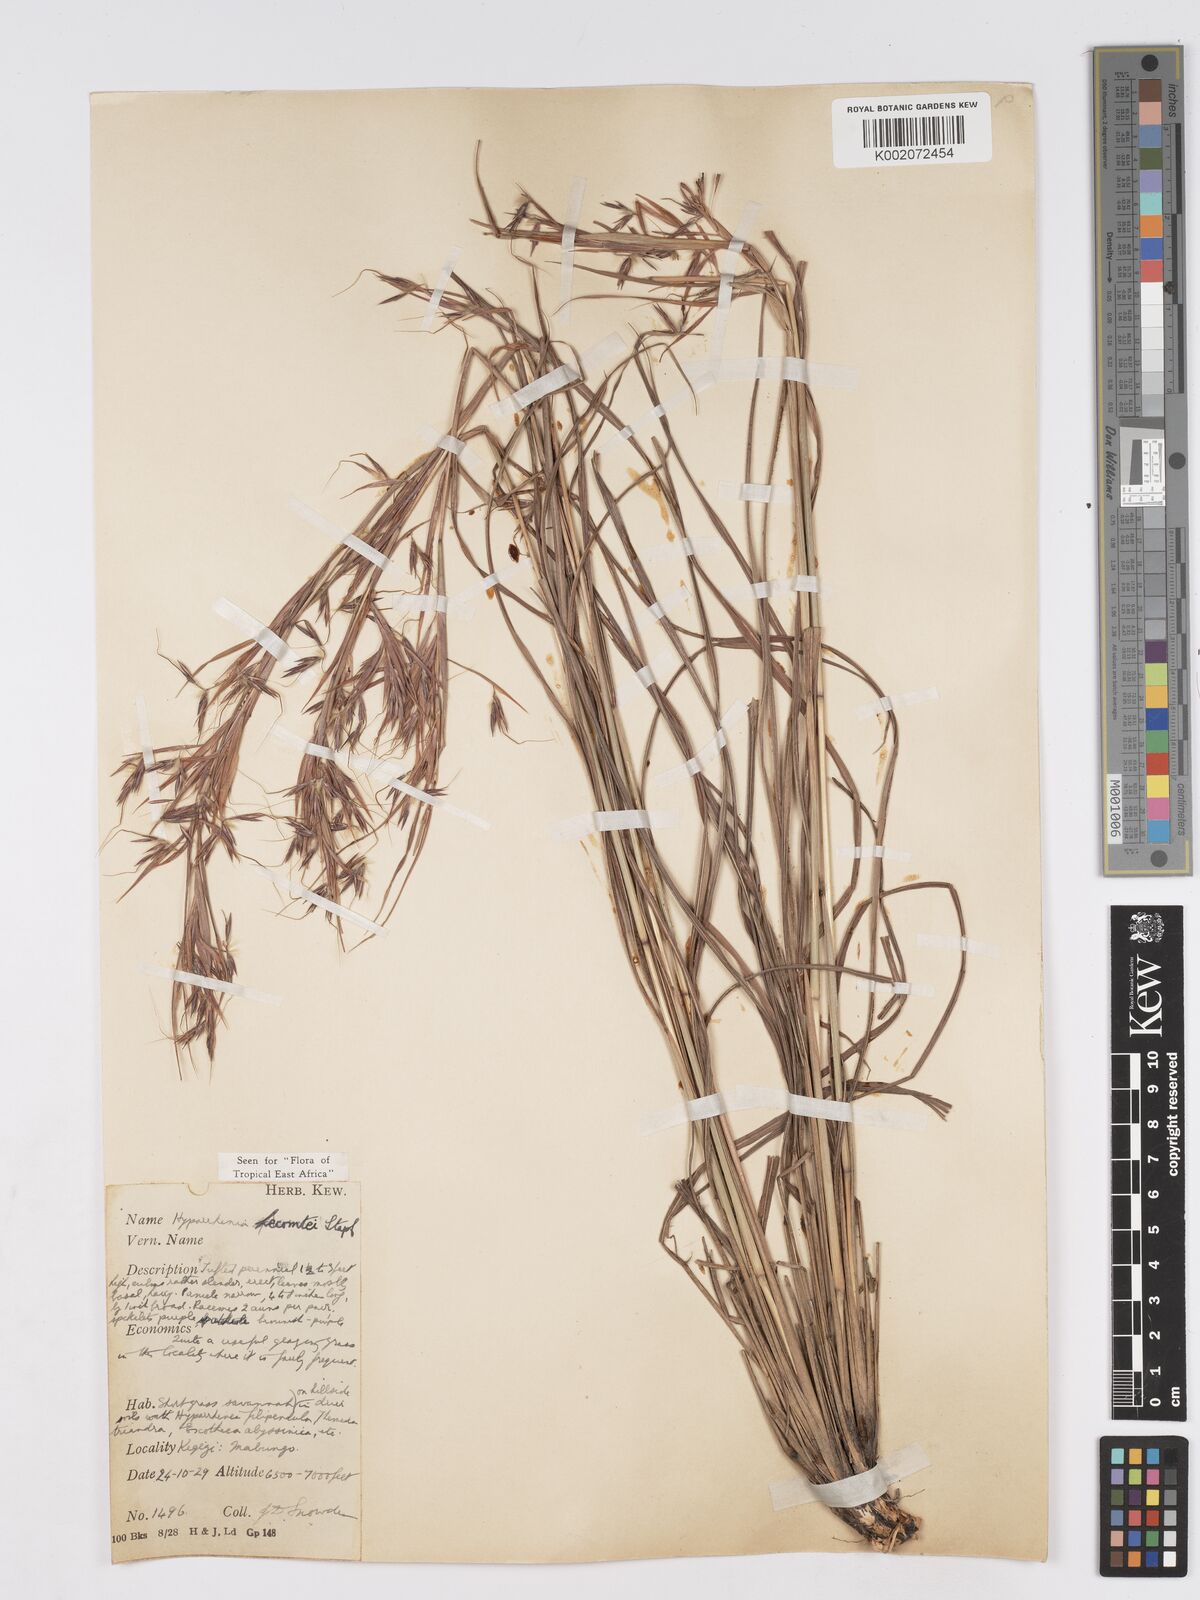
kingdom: Plantae
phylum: Tracheophyta
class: Liliopsida
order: Poales
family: Poaceae
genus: Hyparrhenia
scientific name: Hyparrhenia newtonii
